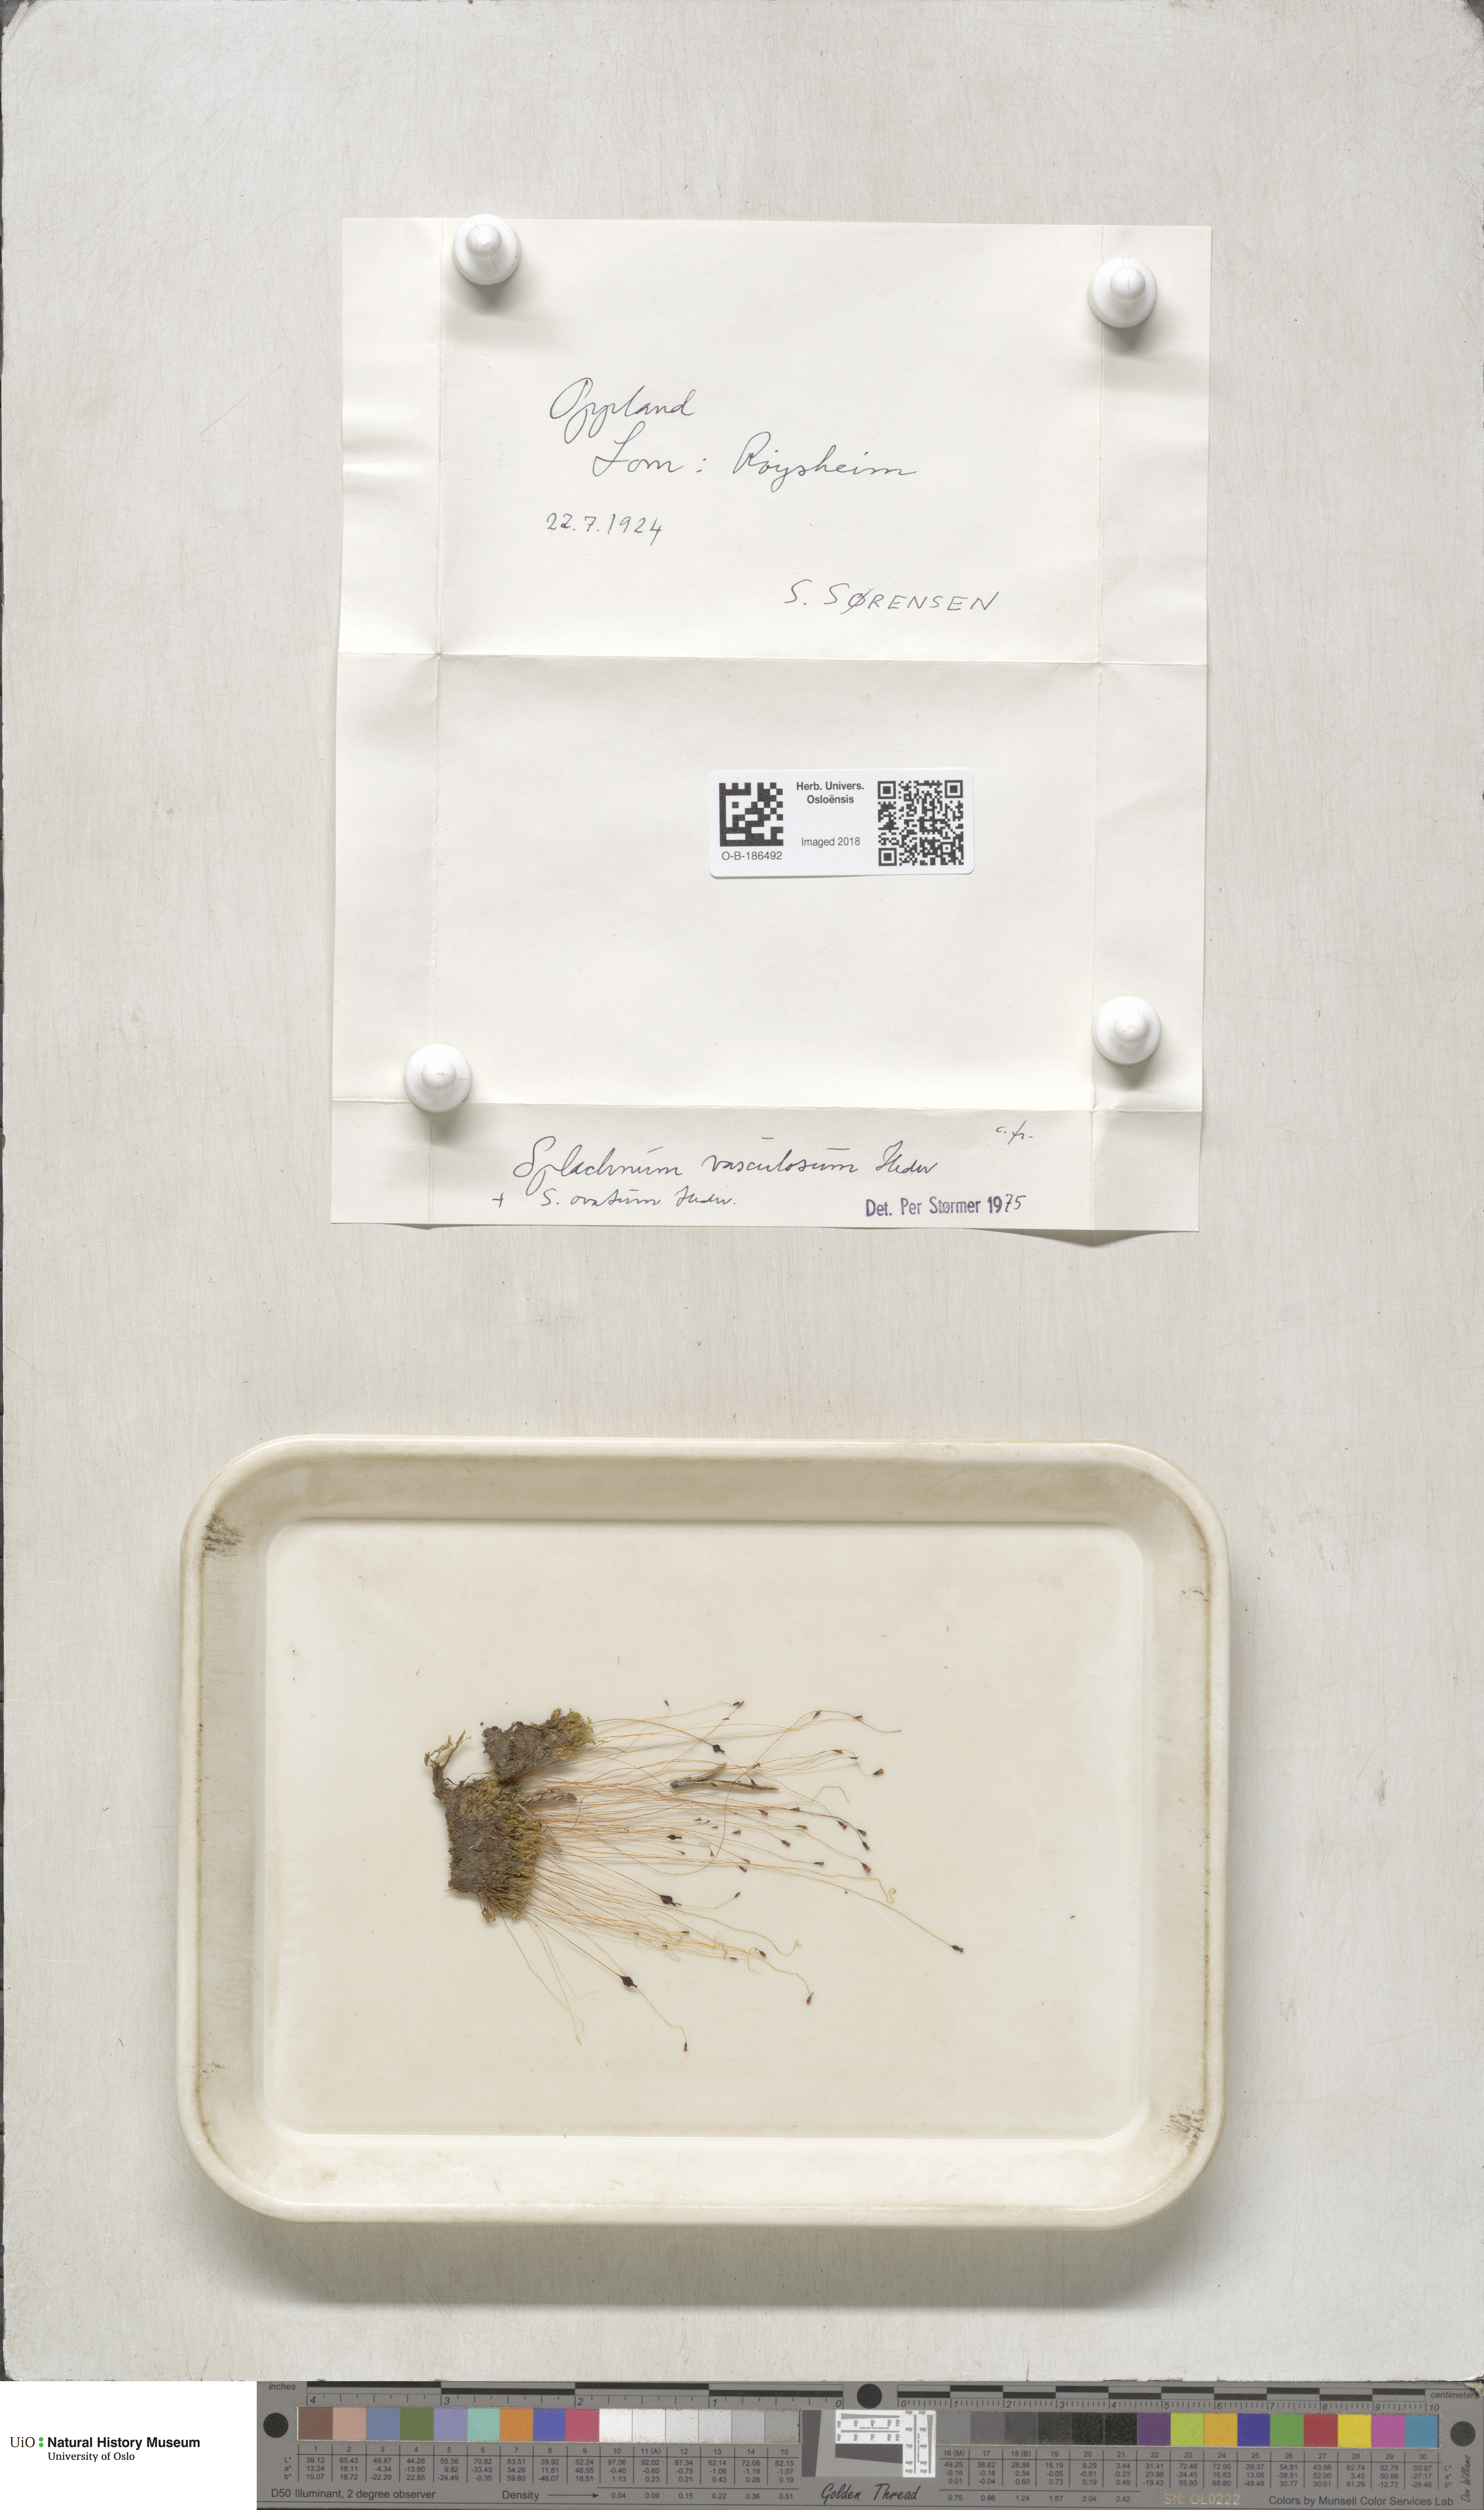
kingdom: Plantae
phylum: Bryophyta
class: Bryopsida
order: Splachnales
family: Splachnaceae
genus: Splachnum
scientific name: Splachnum vasculosum
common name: Rugged dung moss
